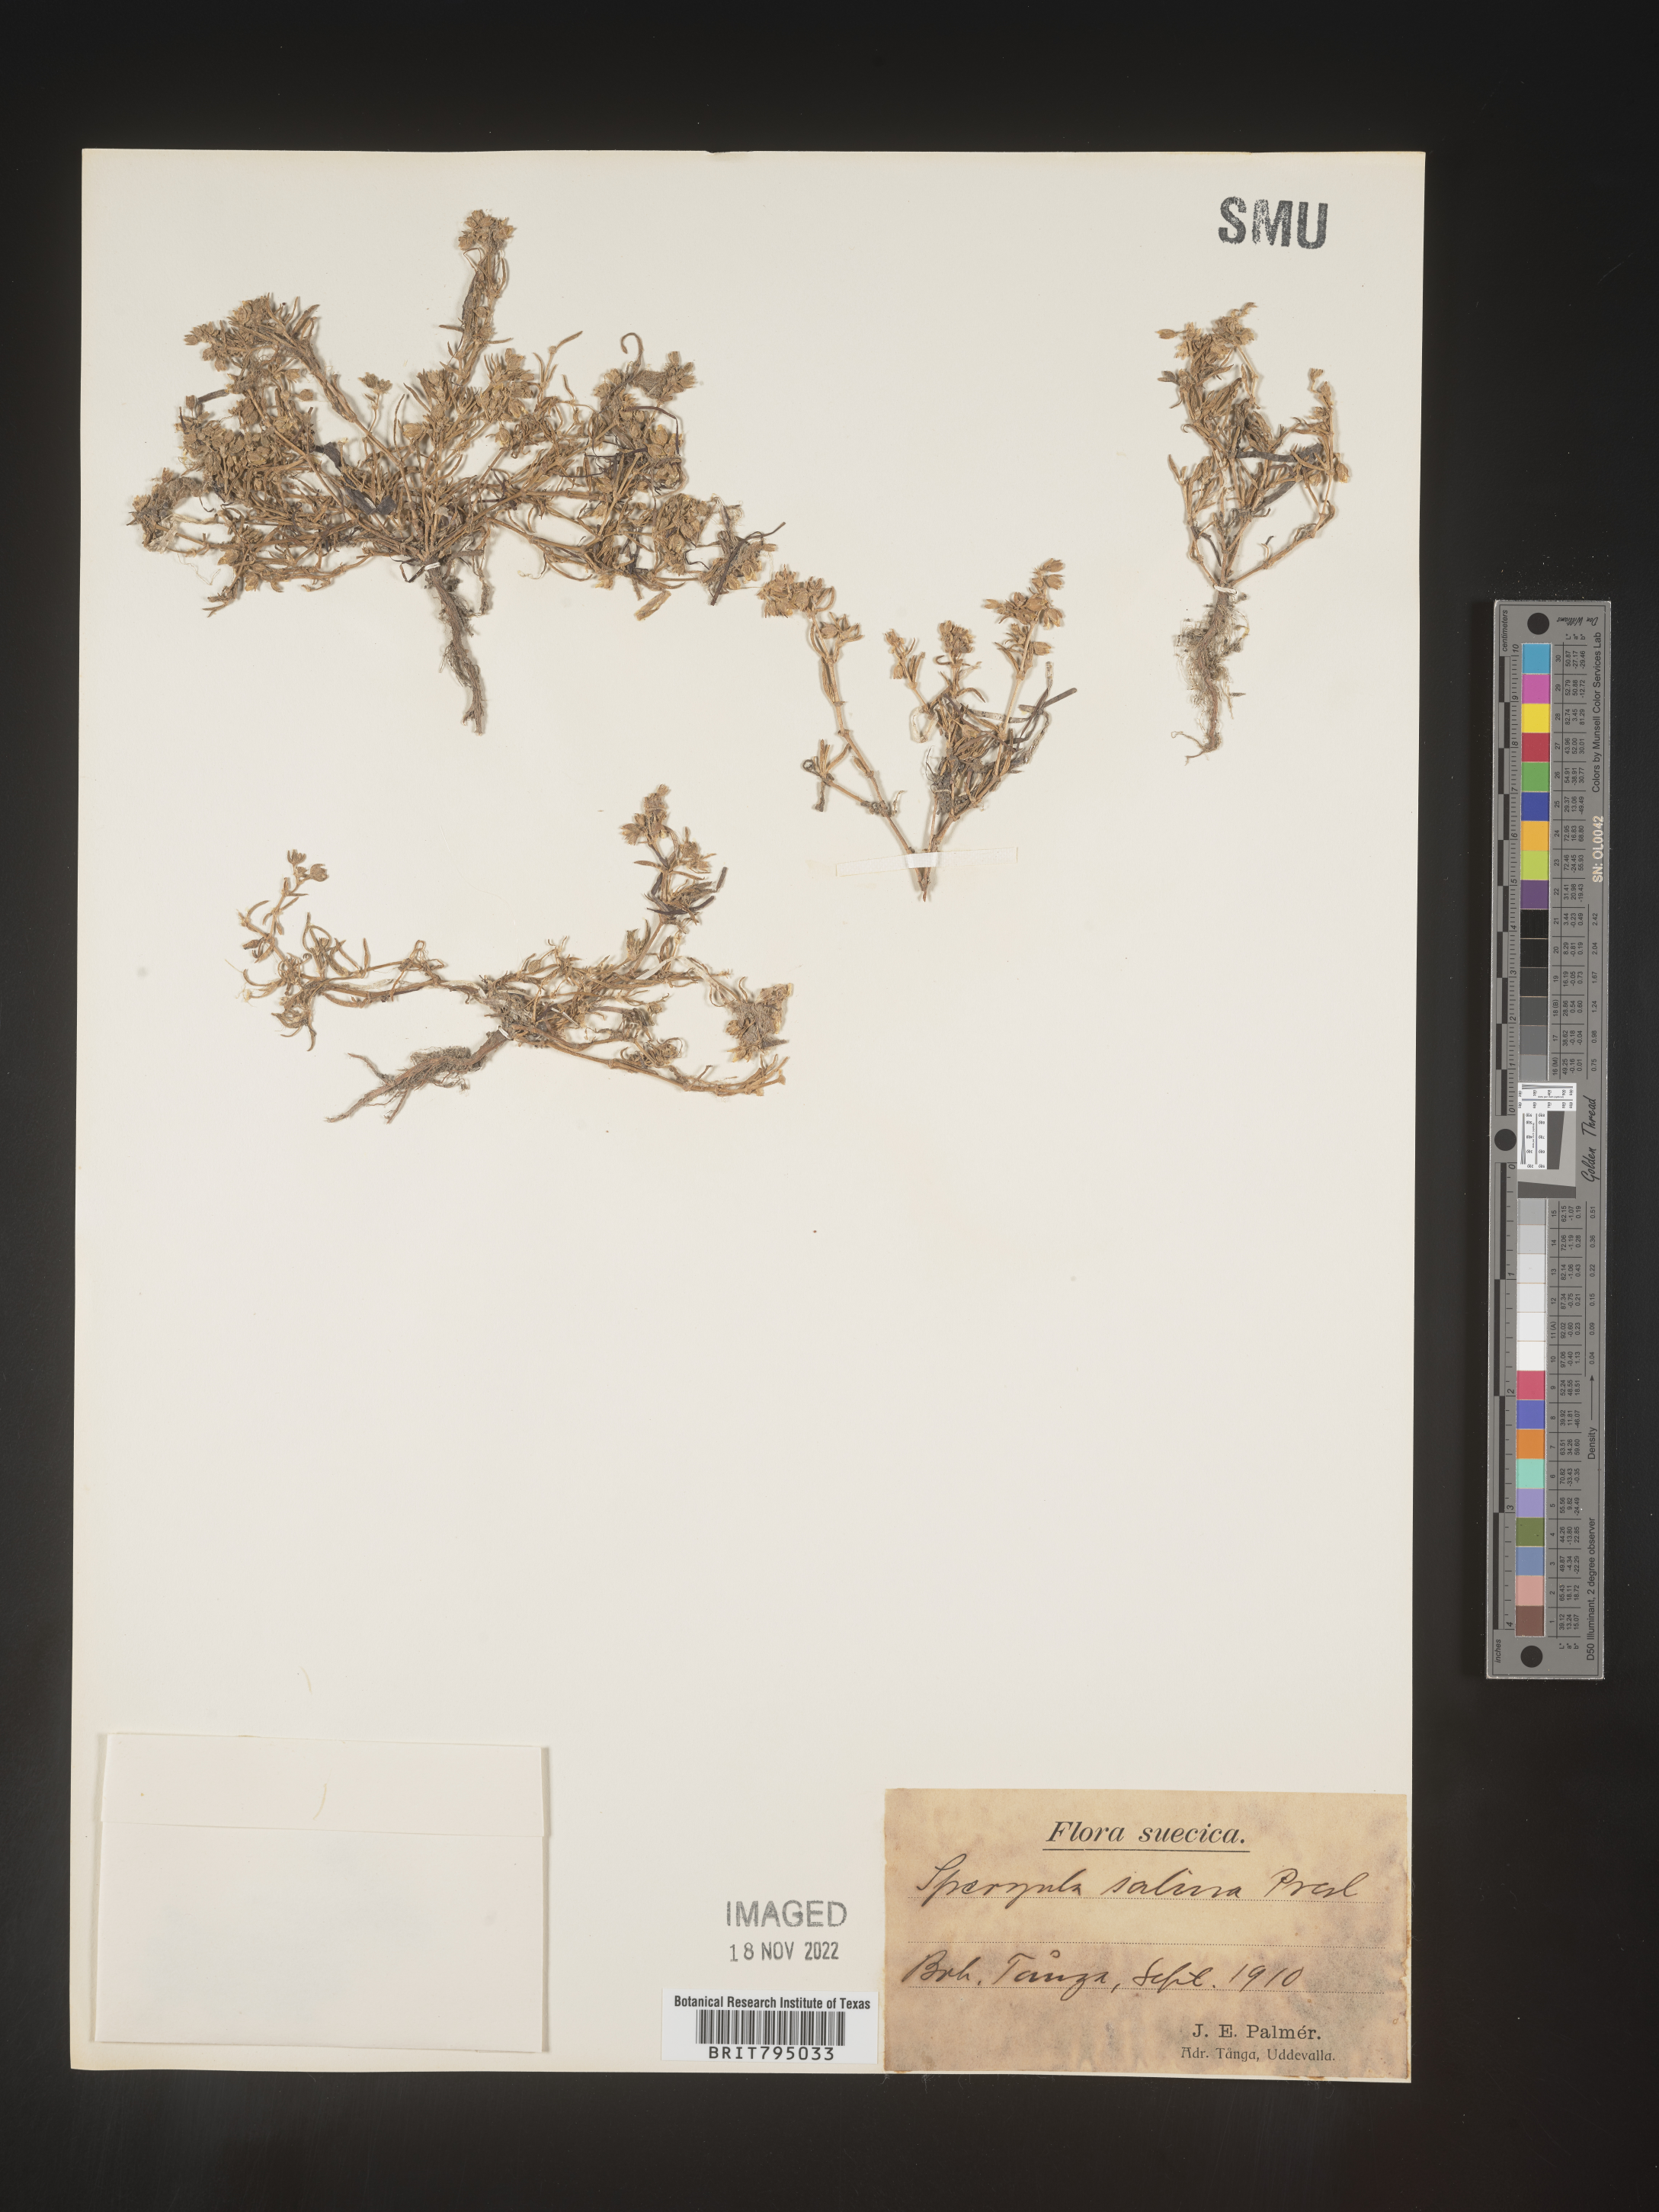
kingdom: Plantae
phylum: Tracheophyta
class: Magnoliopsida
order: Caryophyllales
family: Caryophyllaceae
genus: Spergularia
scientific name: Spergularia marina
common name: Lesser sea-spurrey
